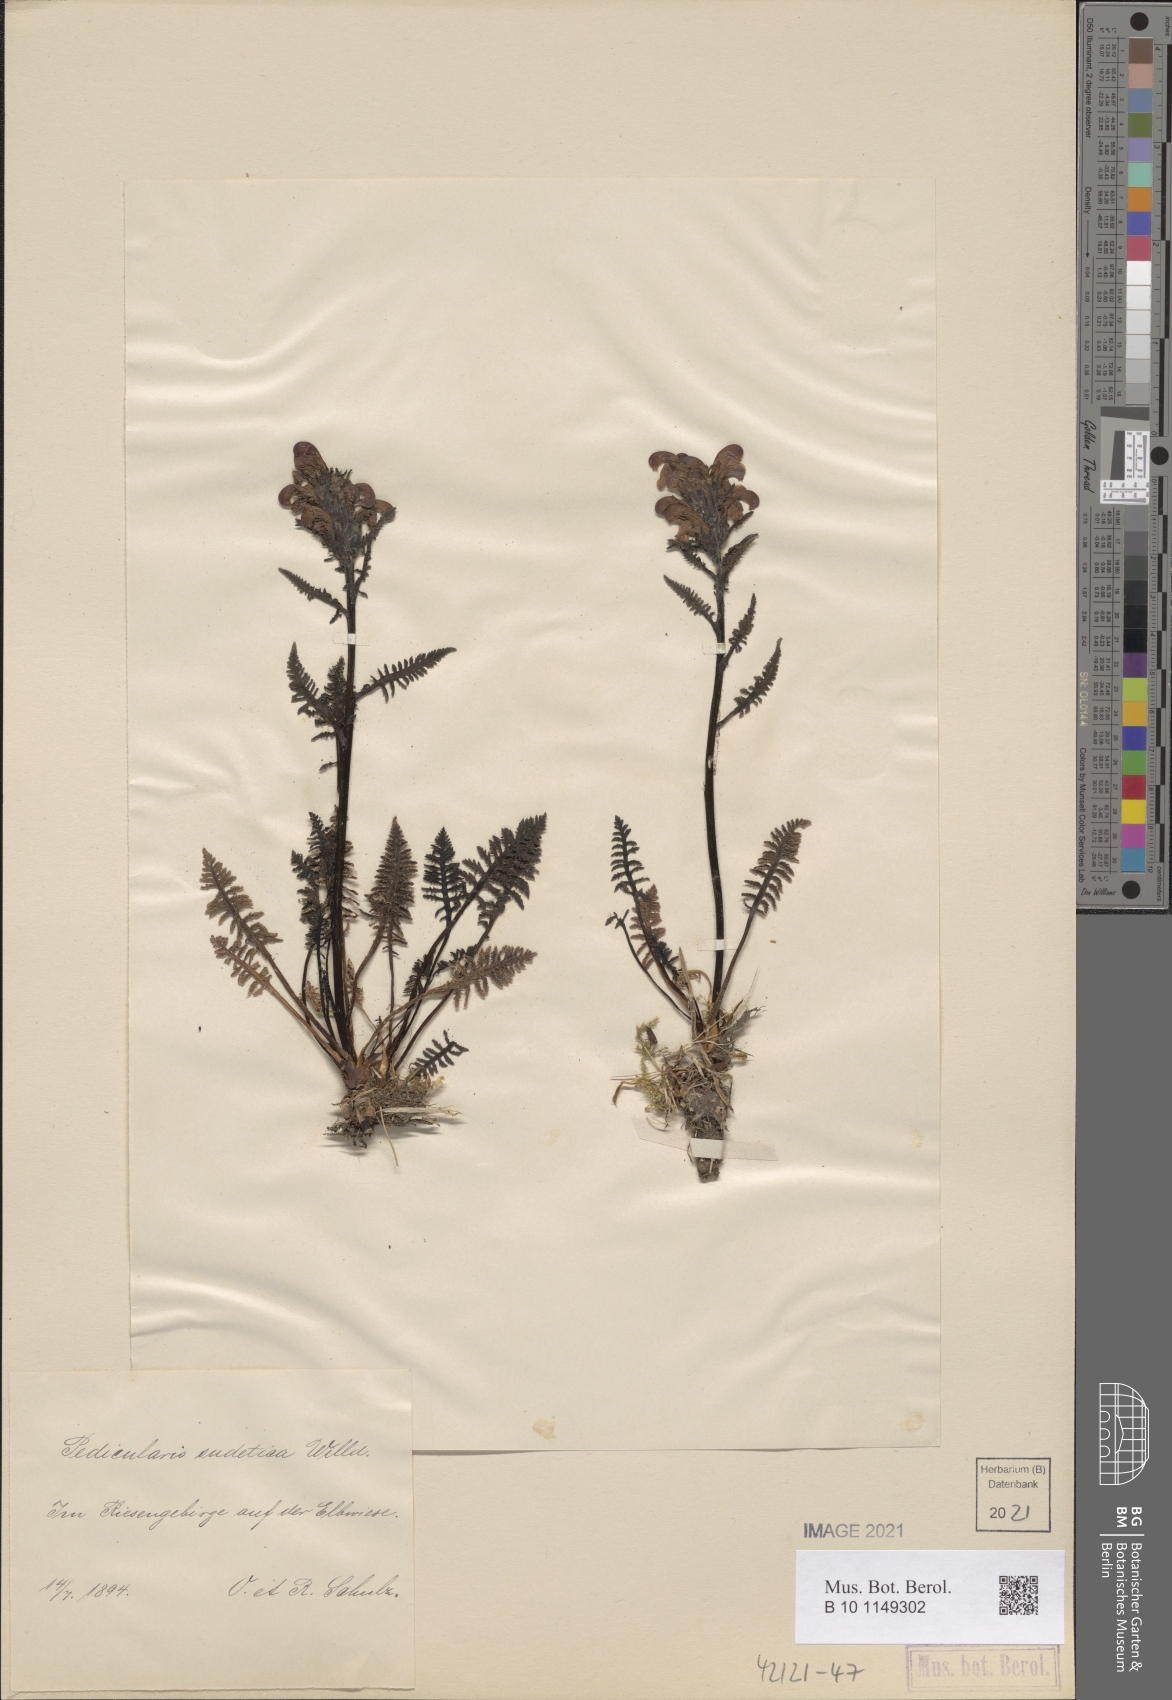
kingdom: Plantae
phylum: Tracheophyta
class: Magnoliopsida
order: Lamiales
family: Orobanchaceae
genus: Pedicularis
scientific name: Pedicularis sudetica
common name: Sudeten lousewort
